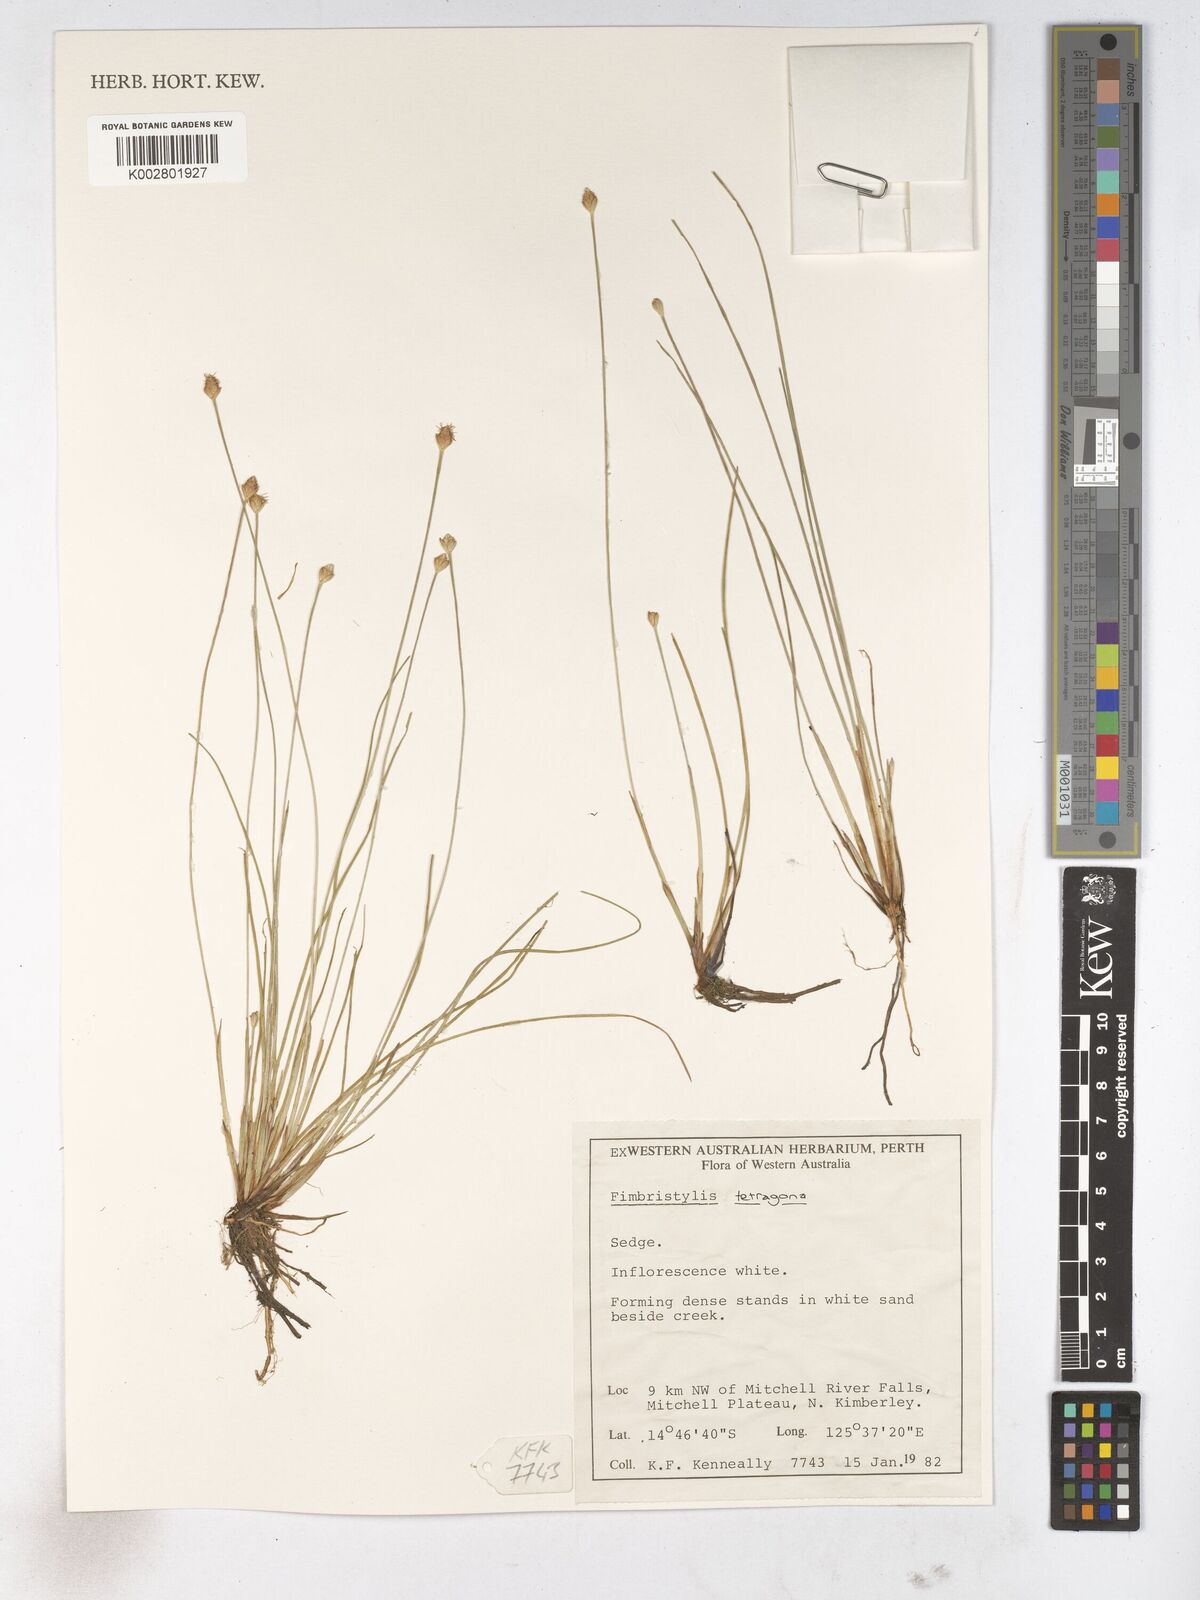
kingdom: Plantae
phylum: Tracheophyta
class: Liliopsida
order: Poales
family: Cyperaceae
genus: Fimbristylis
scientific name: Fimbristylis tetragona
